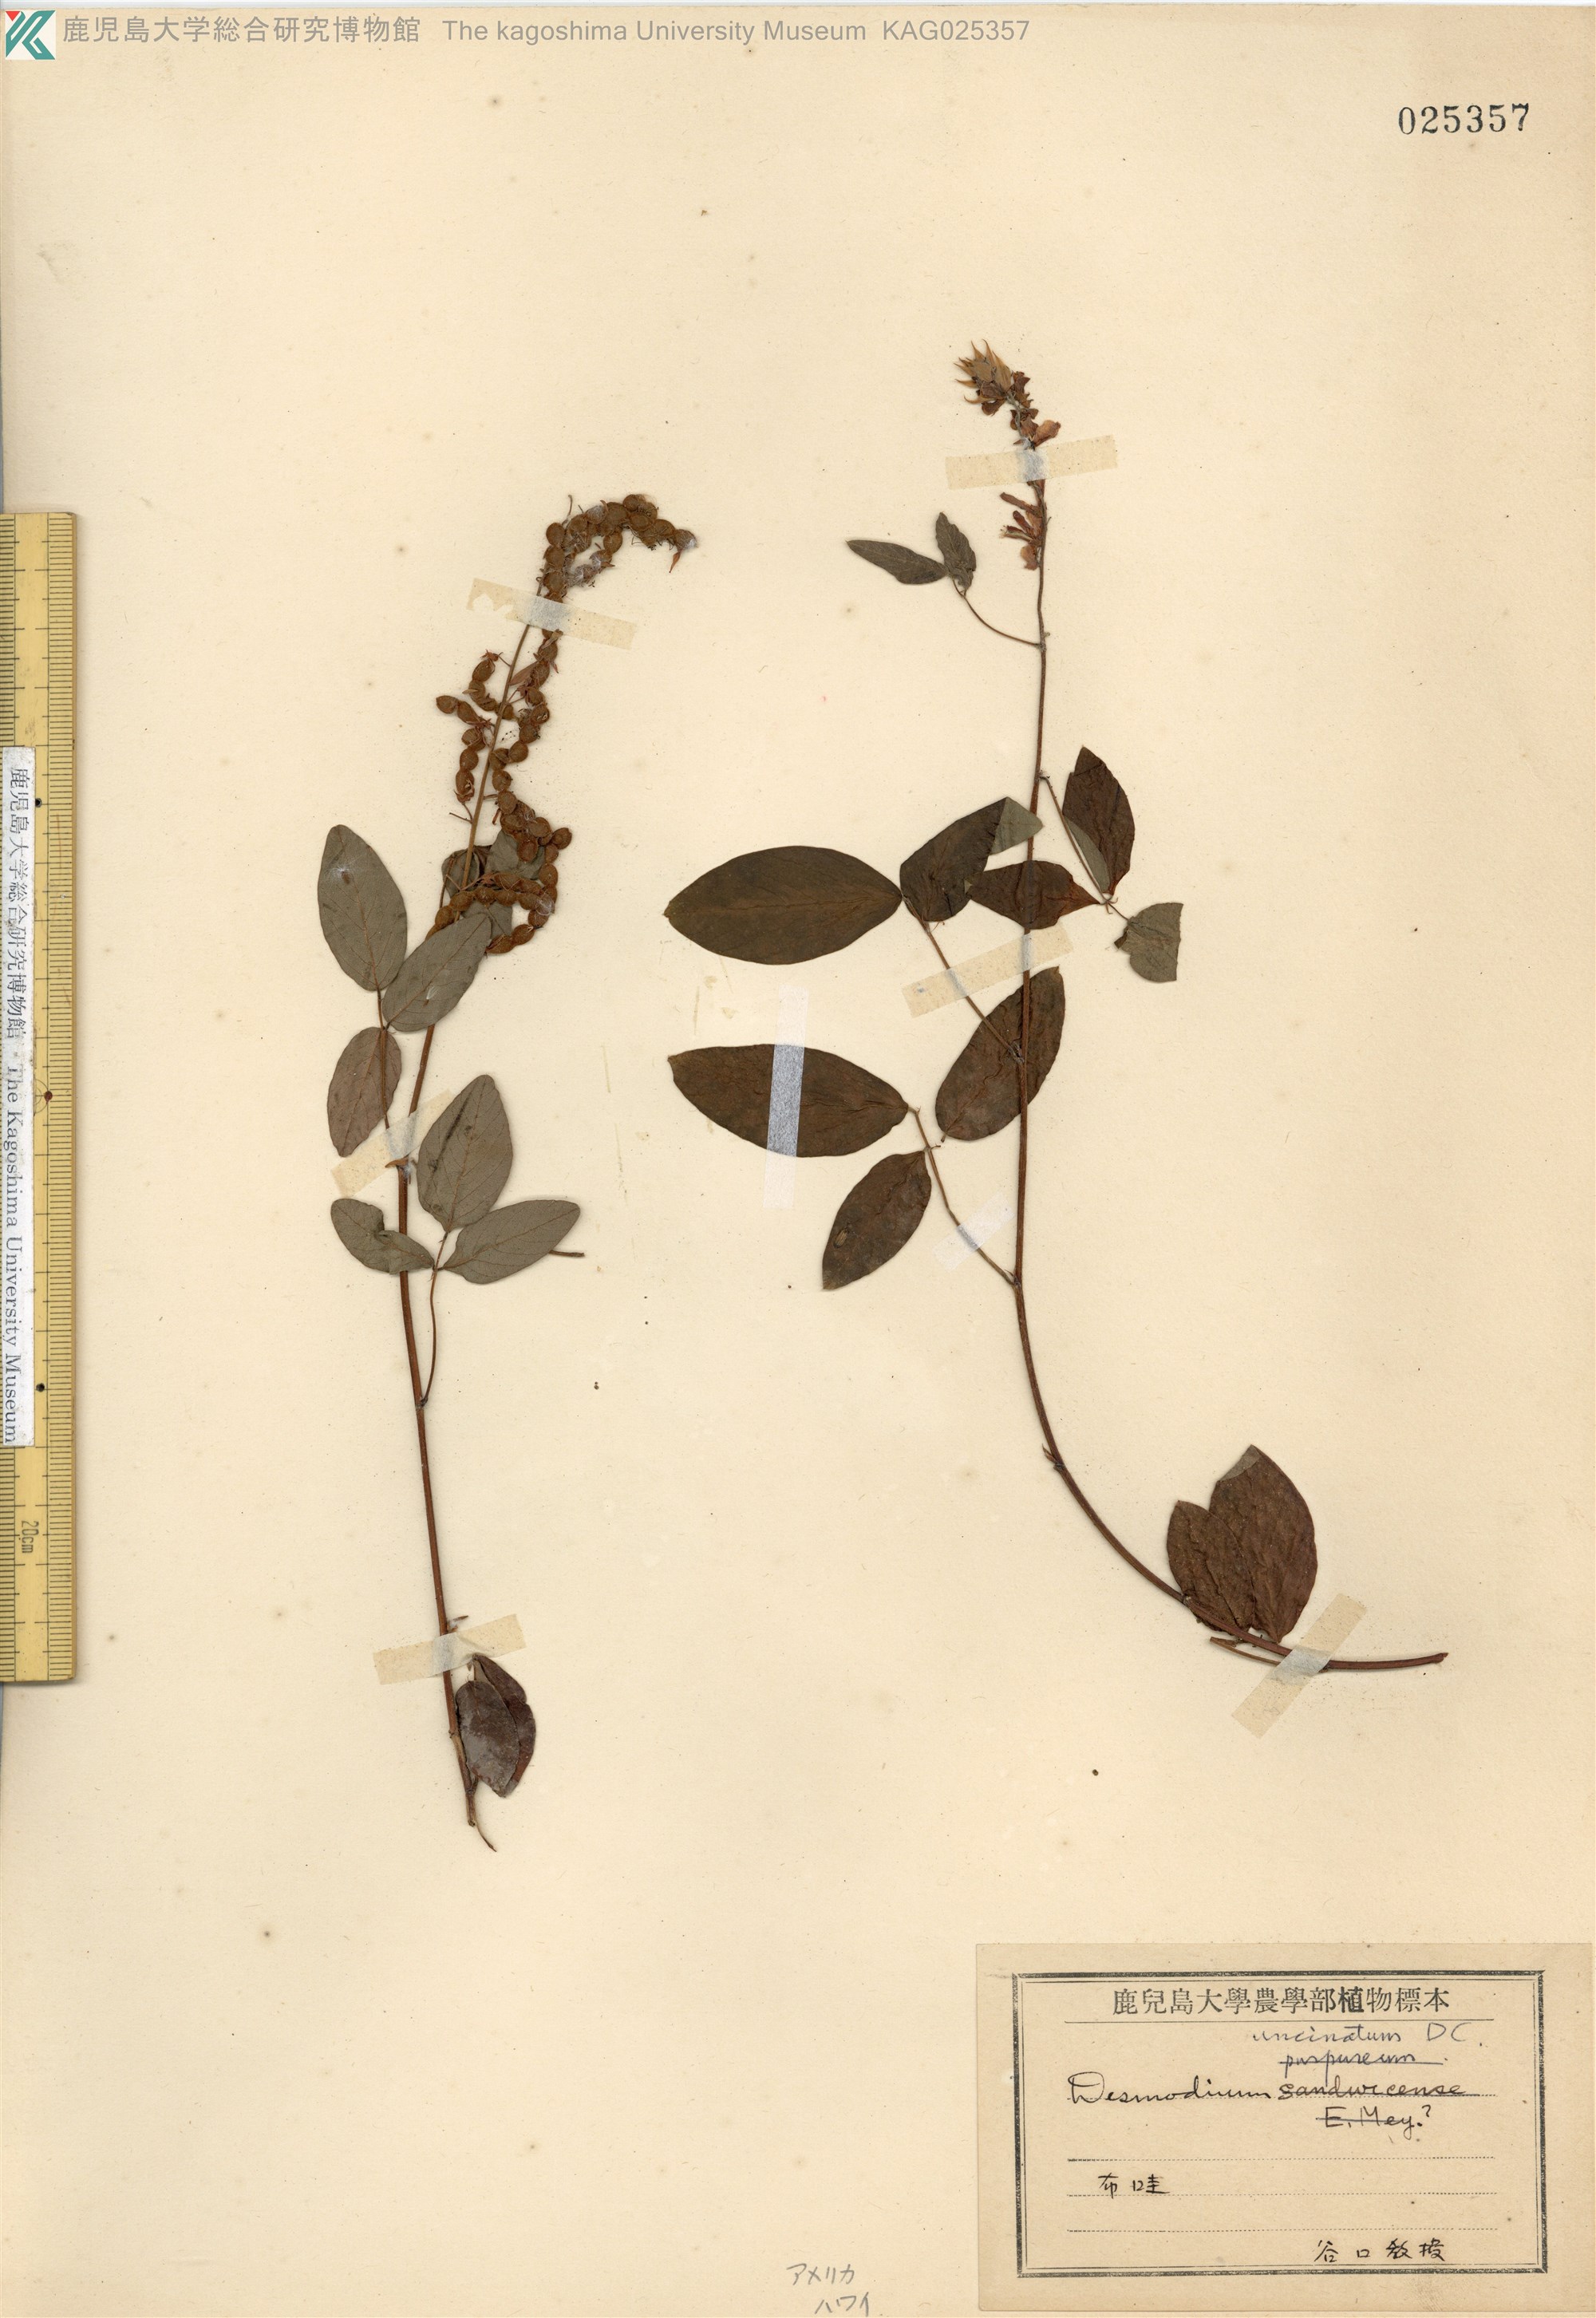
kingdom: Plantae
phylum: Tracheophyta
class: Magnoliopsida
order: Fabales
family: Fabaceae
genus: Desmodium
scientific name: Desmodium uncinatum
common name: Silverleaf desmodium
